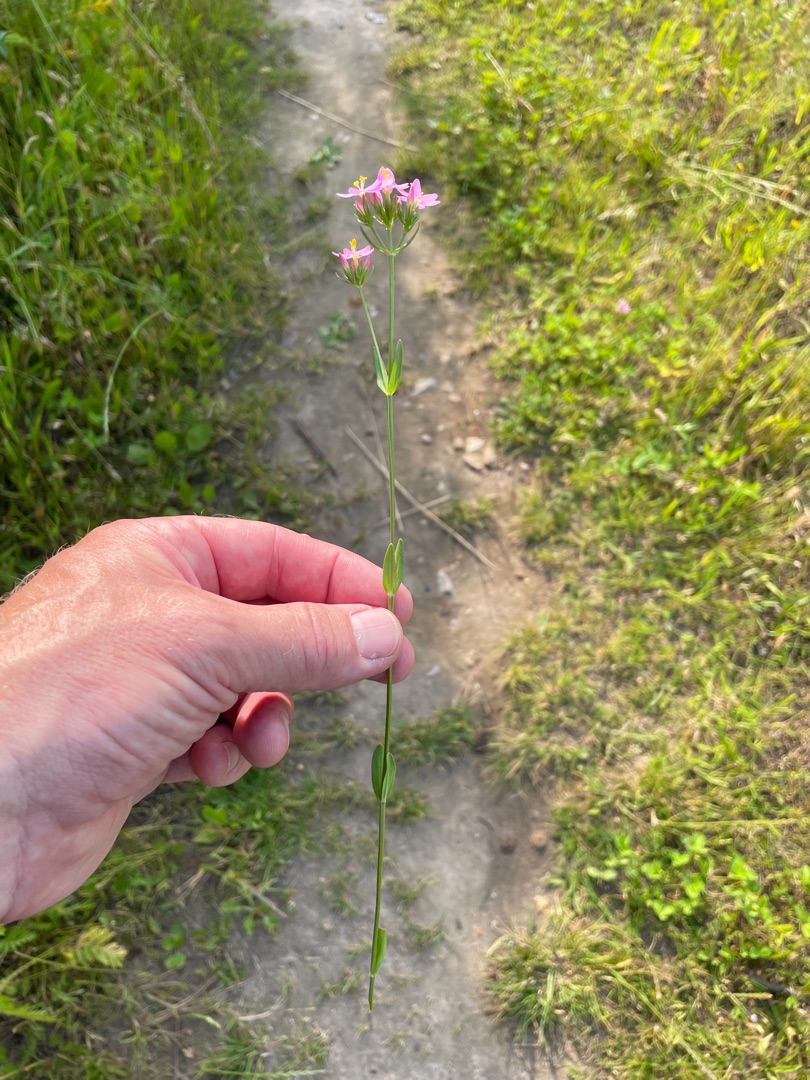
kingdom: Plantae
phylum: Tracheophyta
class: Magnoliopsida
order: Gentianales
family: Gentianaceae
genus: Centaurium
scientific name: Centaurium erythraea
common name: Mark-tusindgylden
